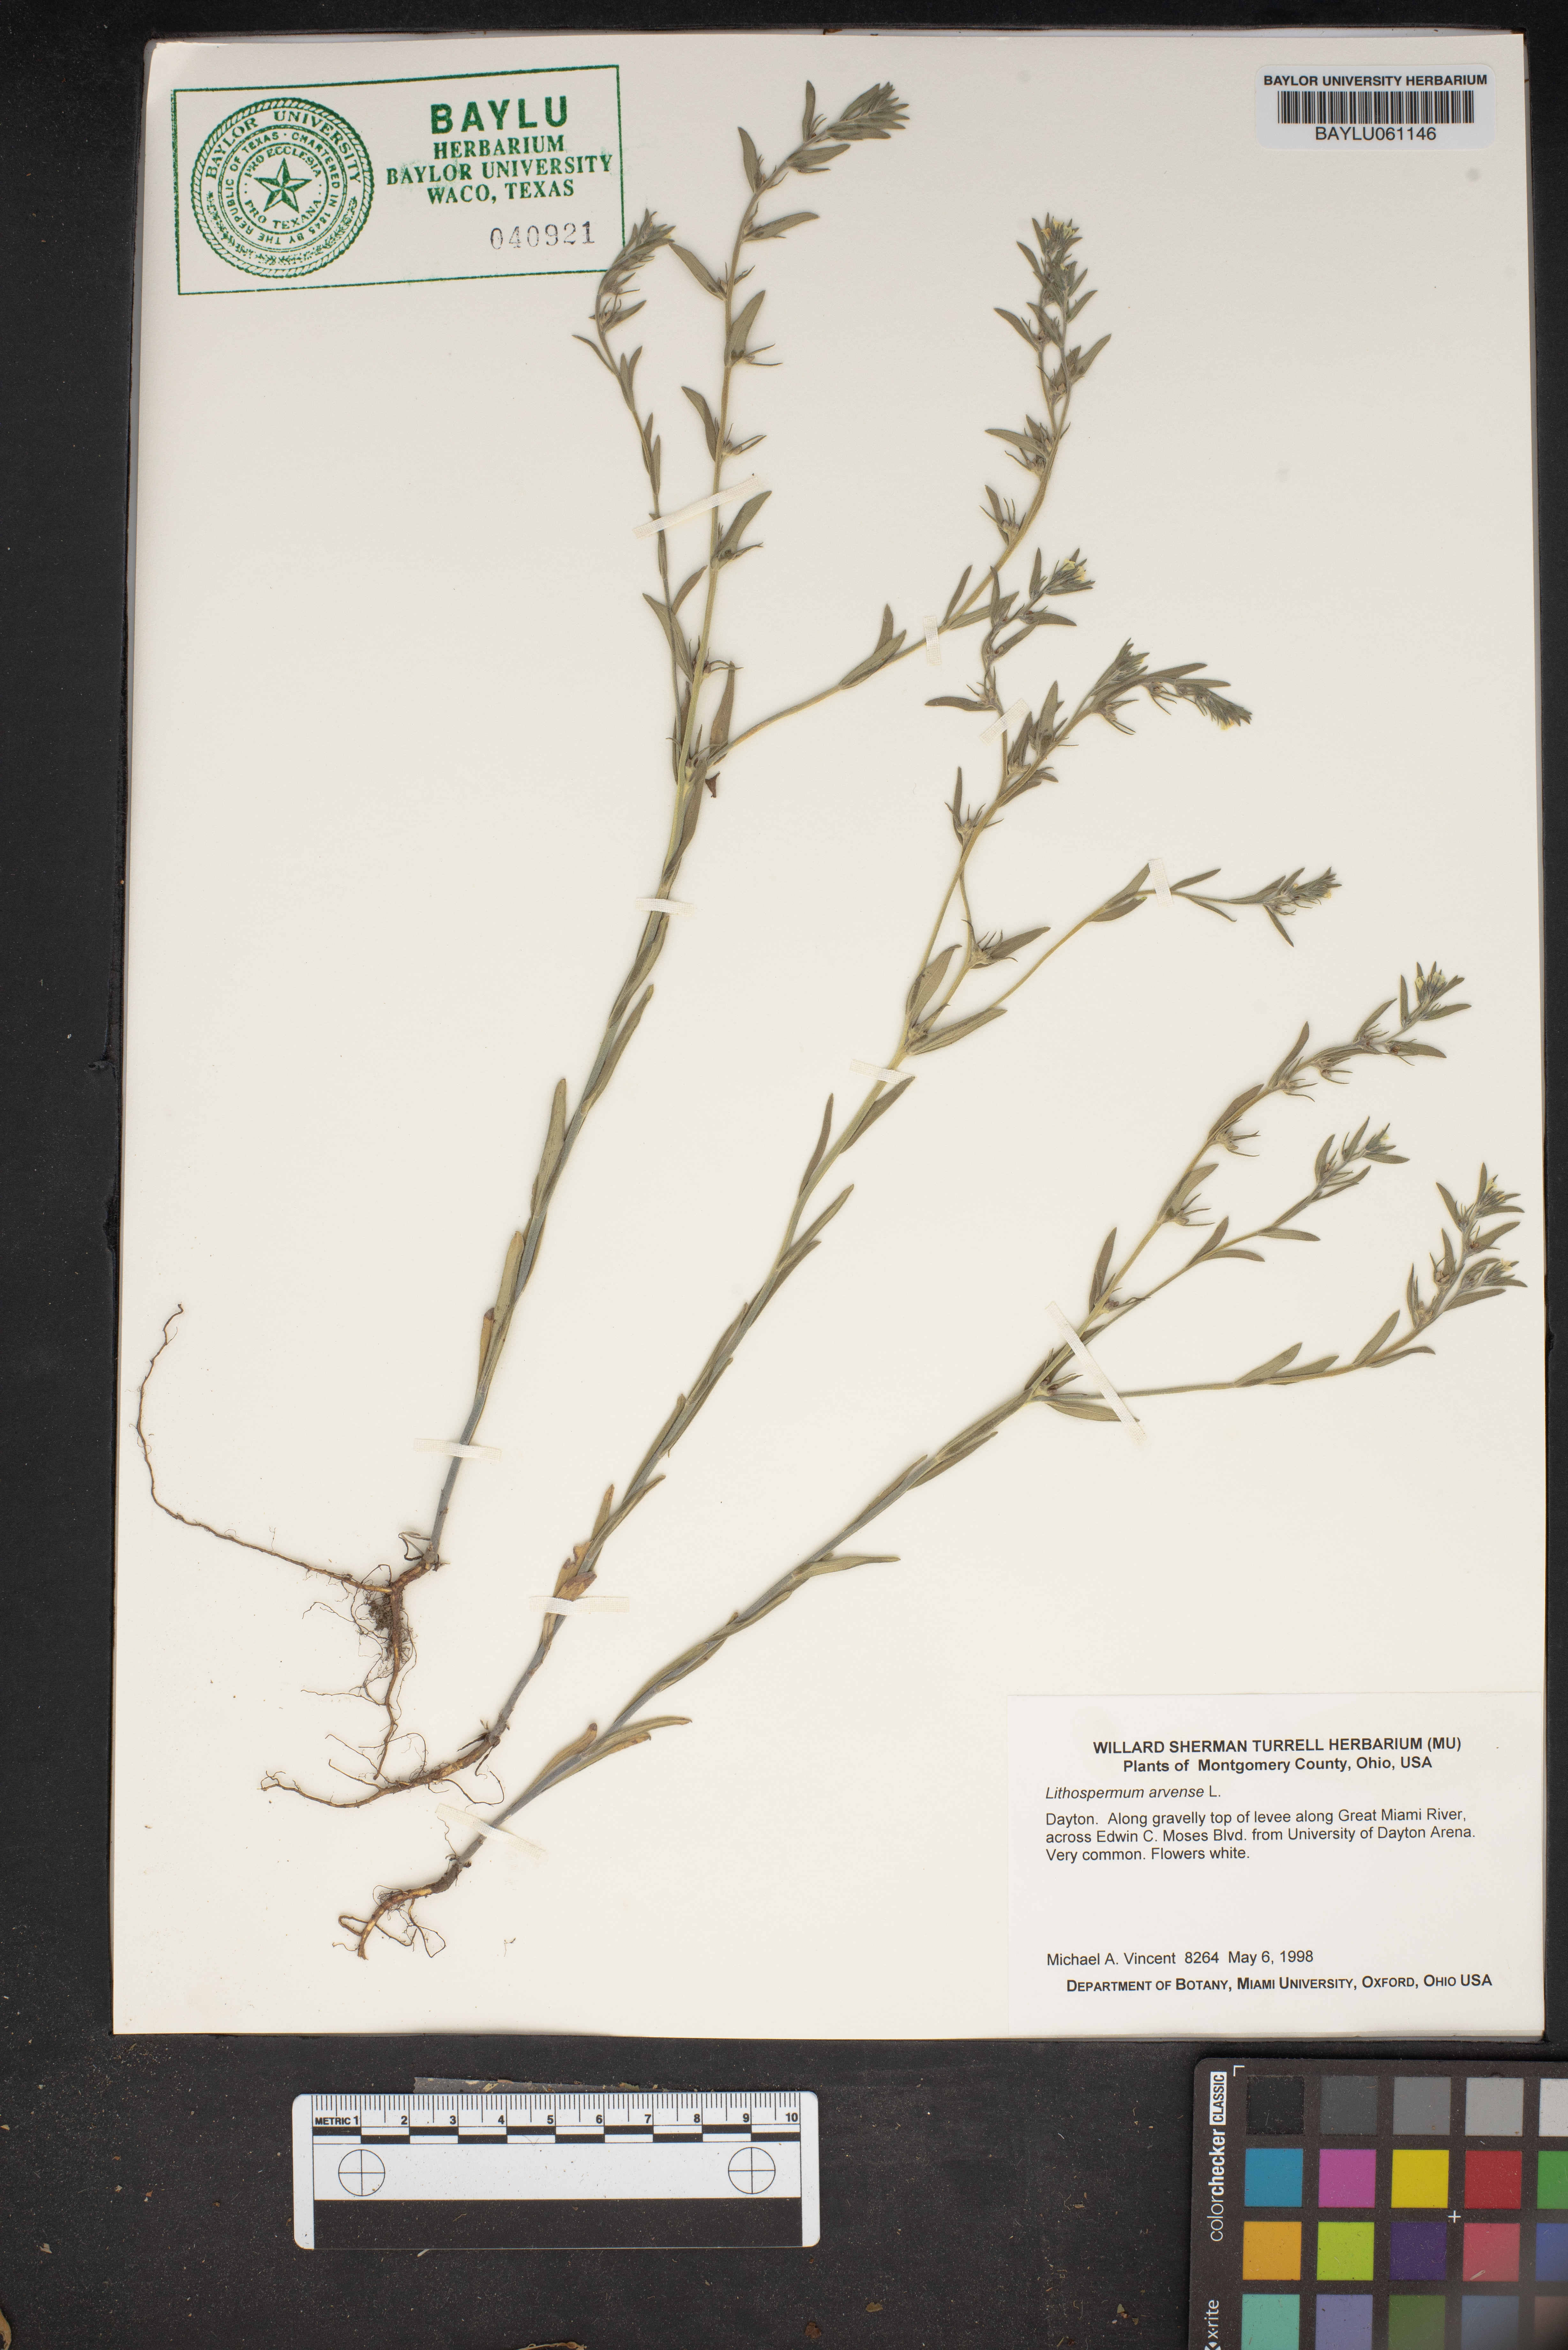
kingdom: Plantae
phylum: Tracheophyta
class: Magnoliopsida
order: Boraginales
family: Boraginaceae
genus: Lithospermum
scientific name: Lithospermum erythrorhizon
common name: Purple gromwell
